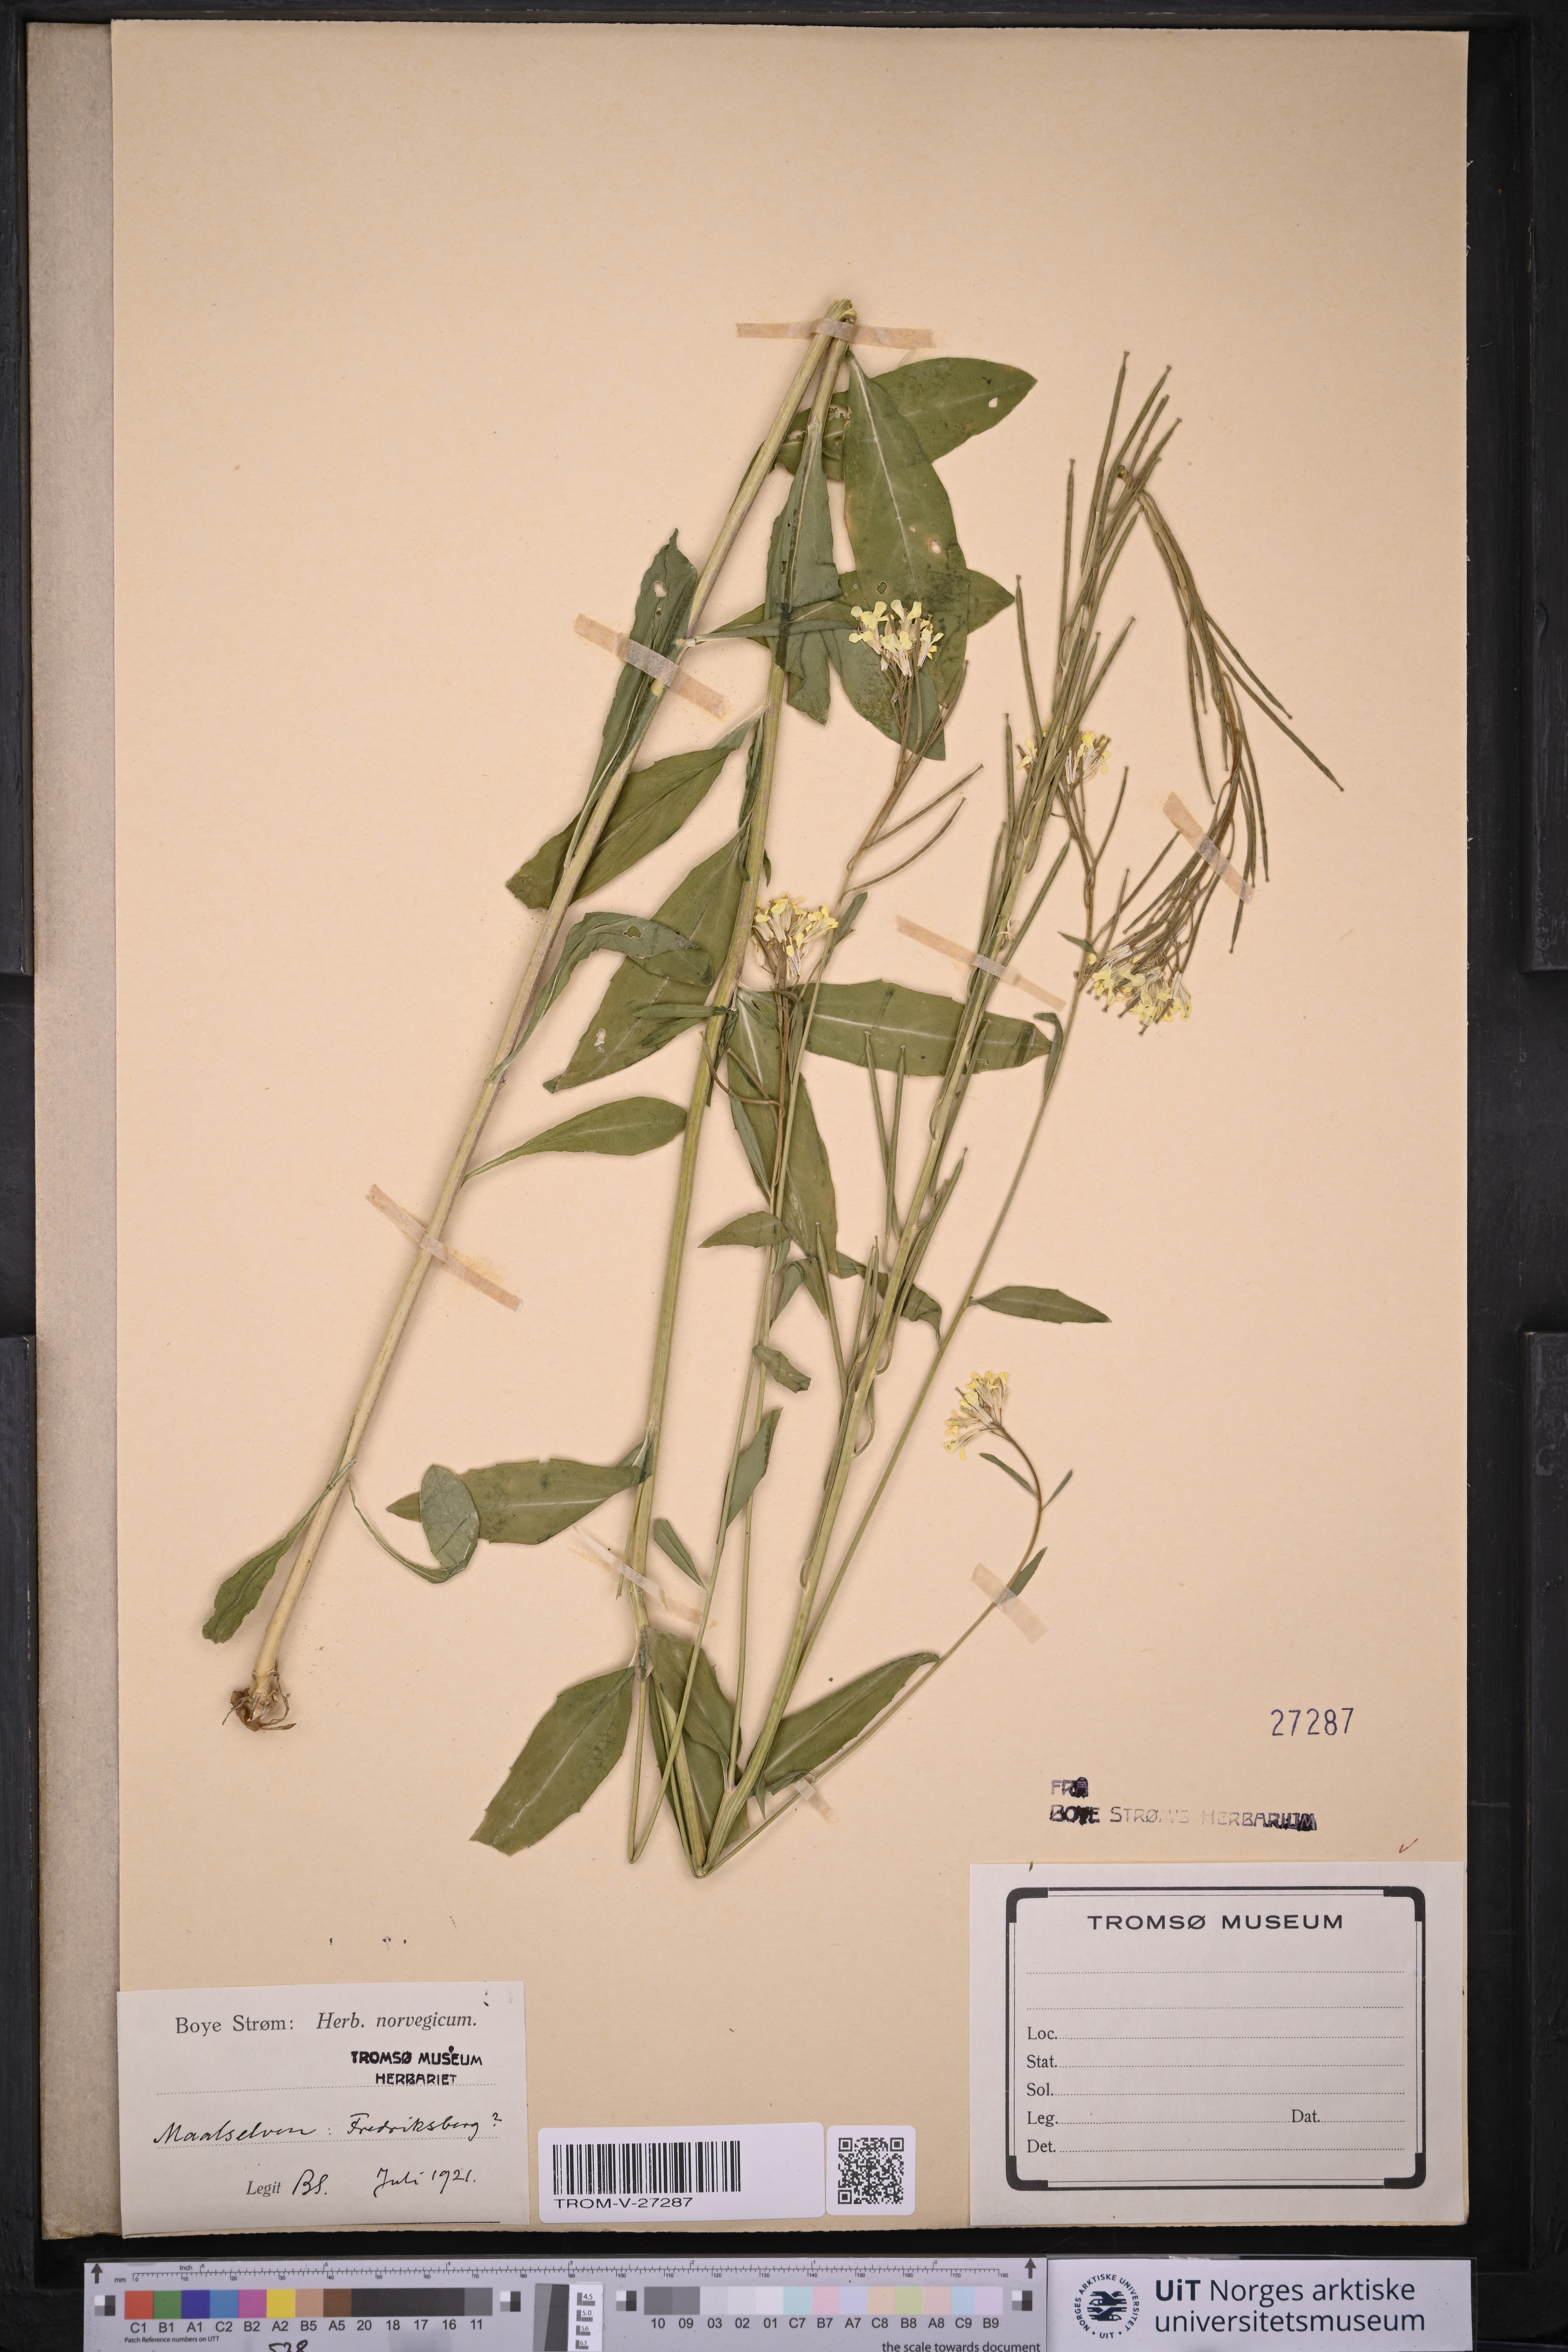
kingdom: Plantae
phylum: Tracheophyta
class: Magnoliopsida
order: Brassicales
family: Brassicaceae
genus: Erysimum
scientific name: Erysimum virgatum
